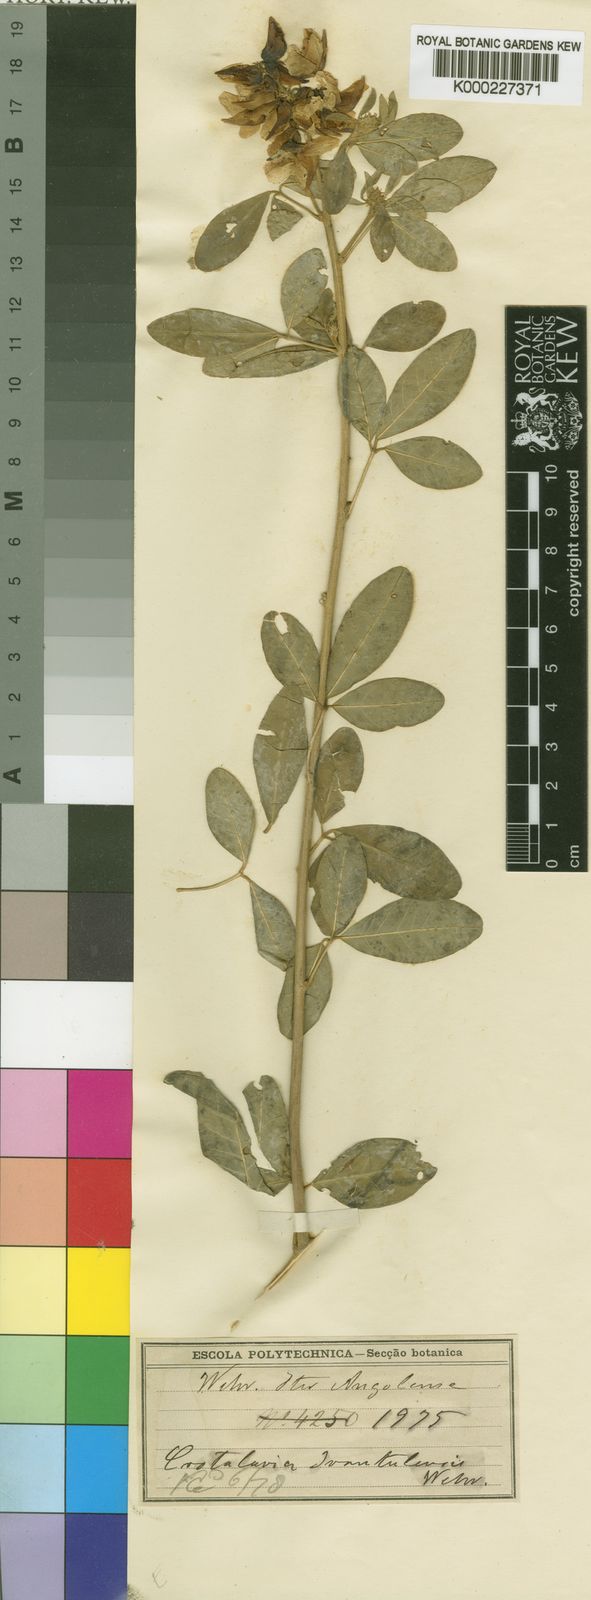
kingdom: Plantae
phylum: Tracheophyta
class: Magnoliopsida
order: Fabales
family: Fabaceae
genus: Crotalaria
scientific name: Crotalaria
